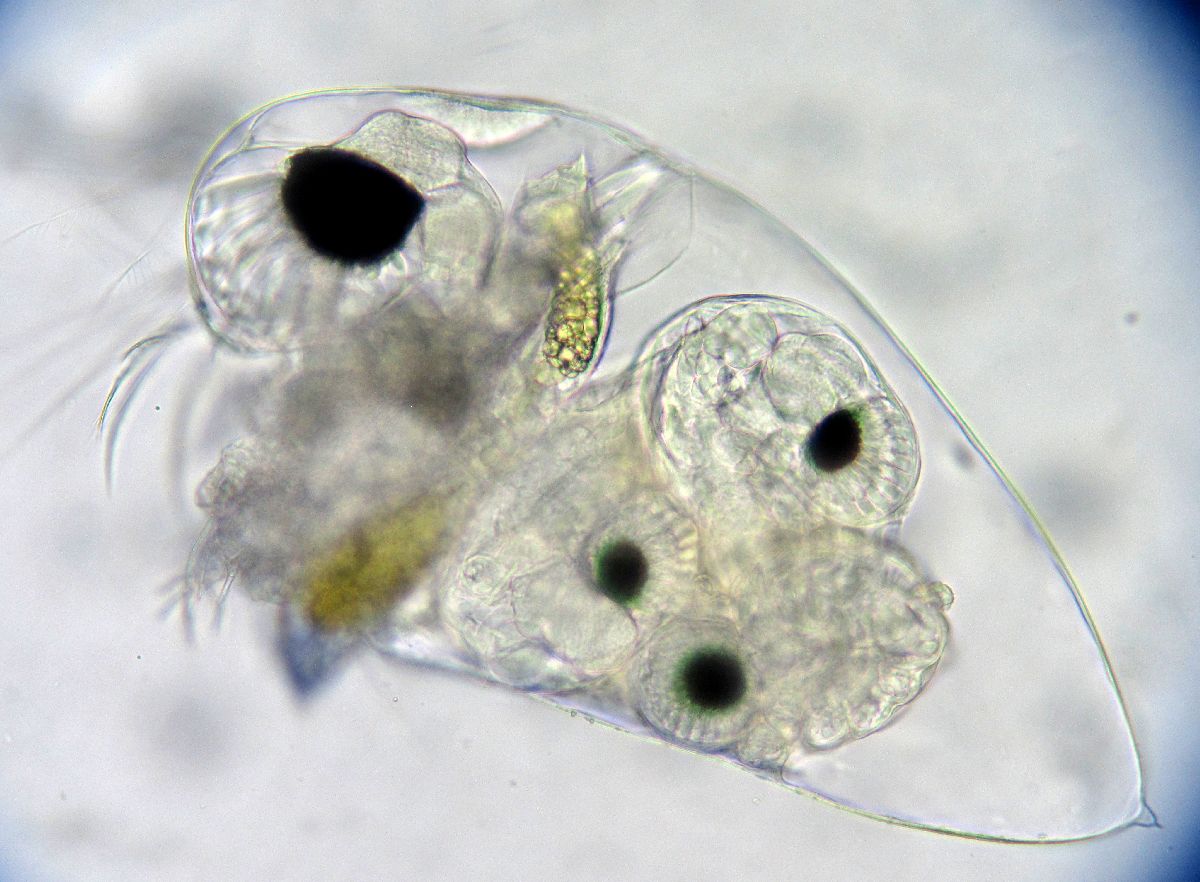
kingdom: Animalia
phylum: Arthropoda
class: Branchiopoda
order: Diplostraca
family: Podonidae
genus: Evadne
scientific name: Evadne nordmanni
